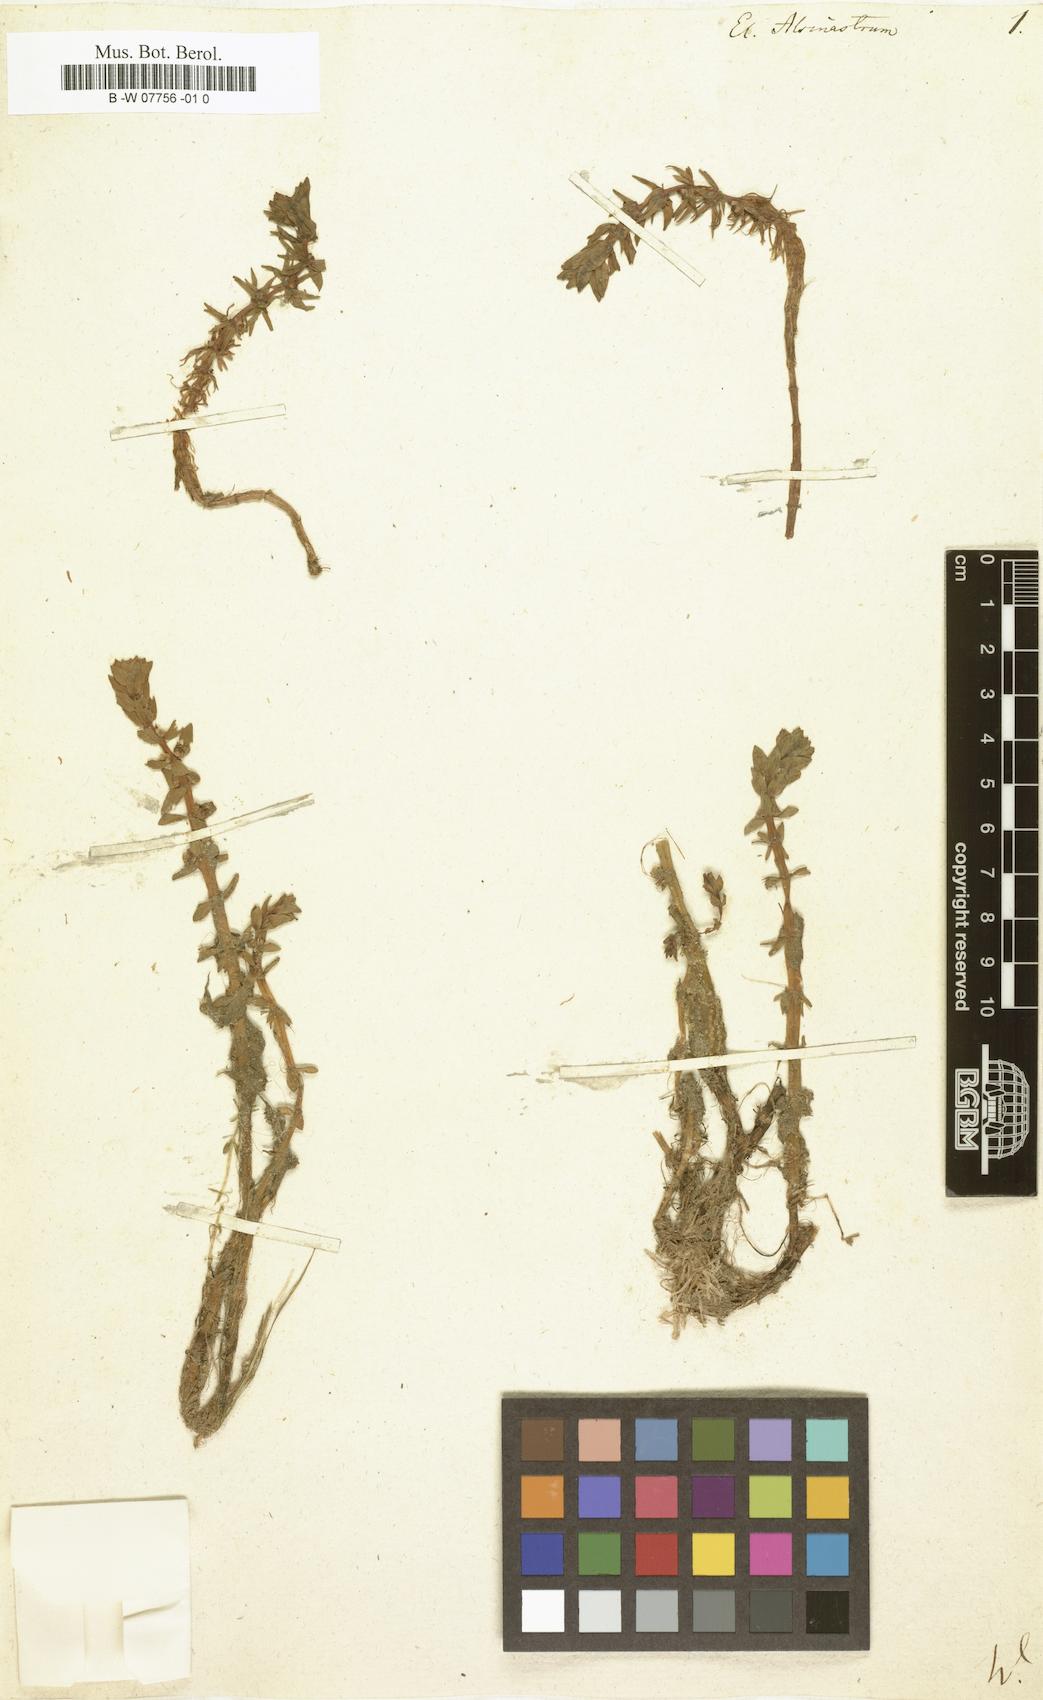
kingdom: Plantae
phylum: Tracheophyta
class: Magnoliopsida
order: Malpighiales
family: Elatinaceae
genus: Elatine
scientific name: Elatine alsinastrum
